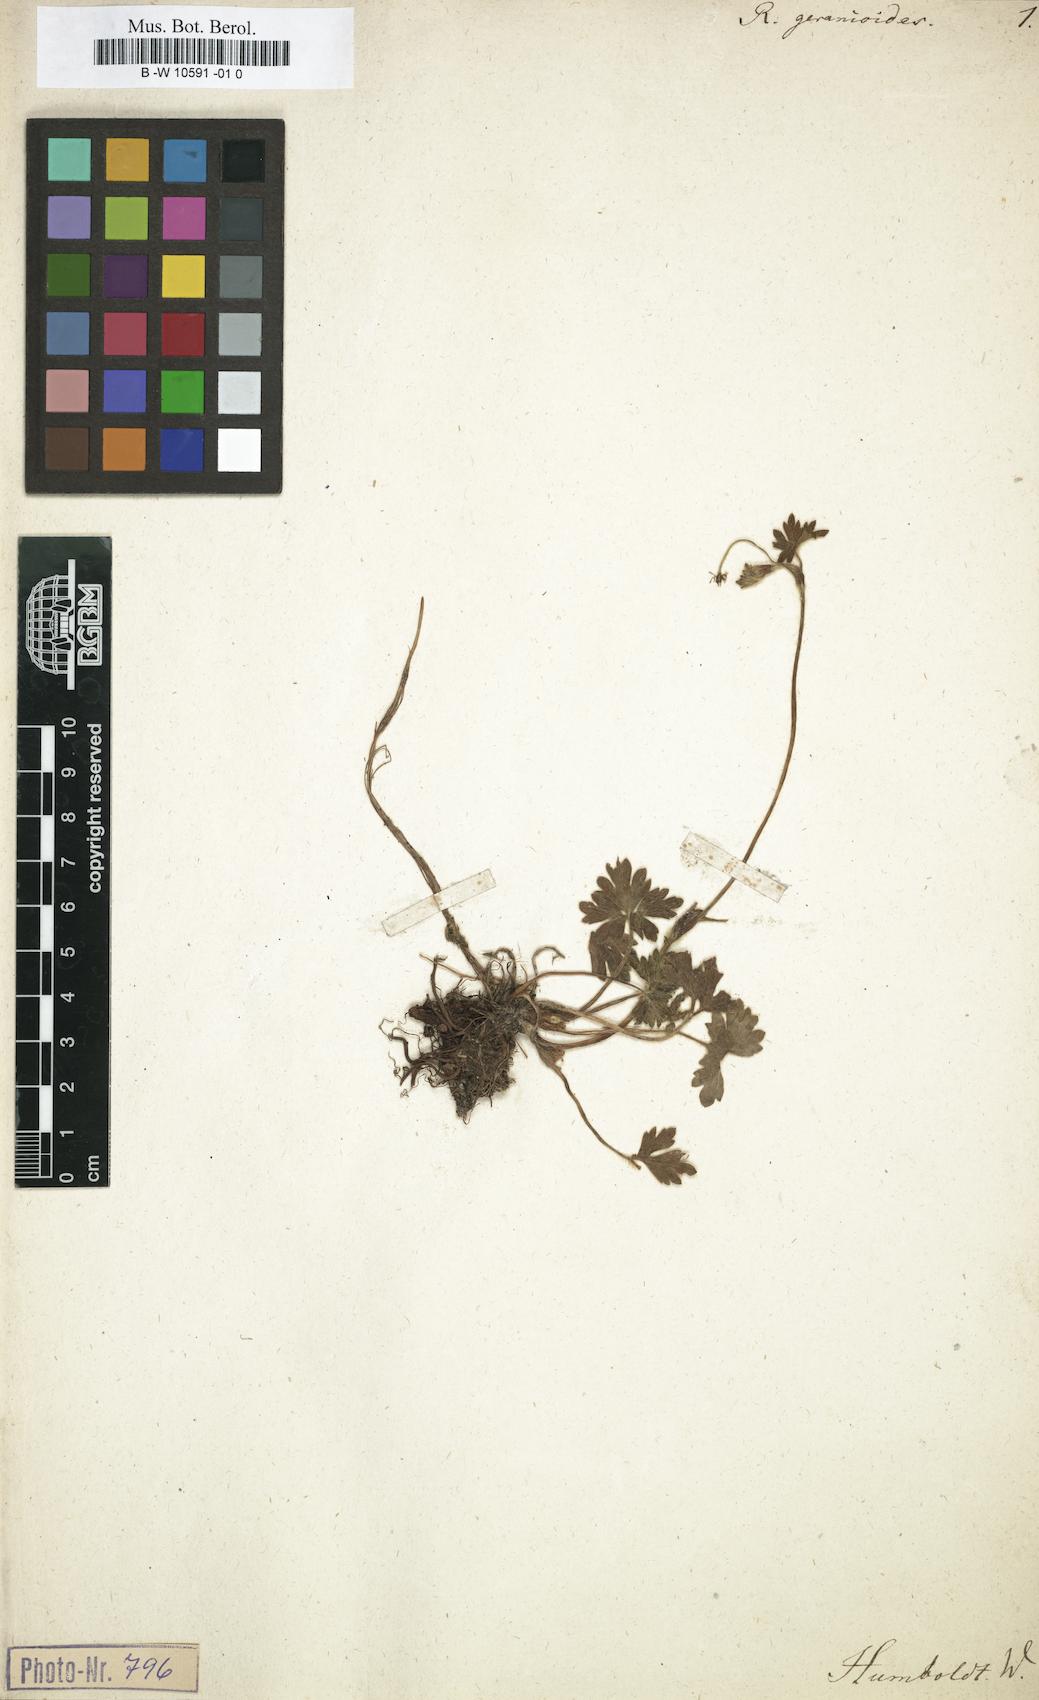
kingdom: Plantae
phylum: Tracheophyta
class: Magnoliopsida
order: Ranunculales
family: Ranunculaceae
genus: Ranunculus
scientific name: Ranunculus geranioides
